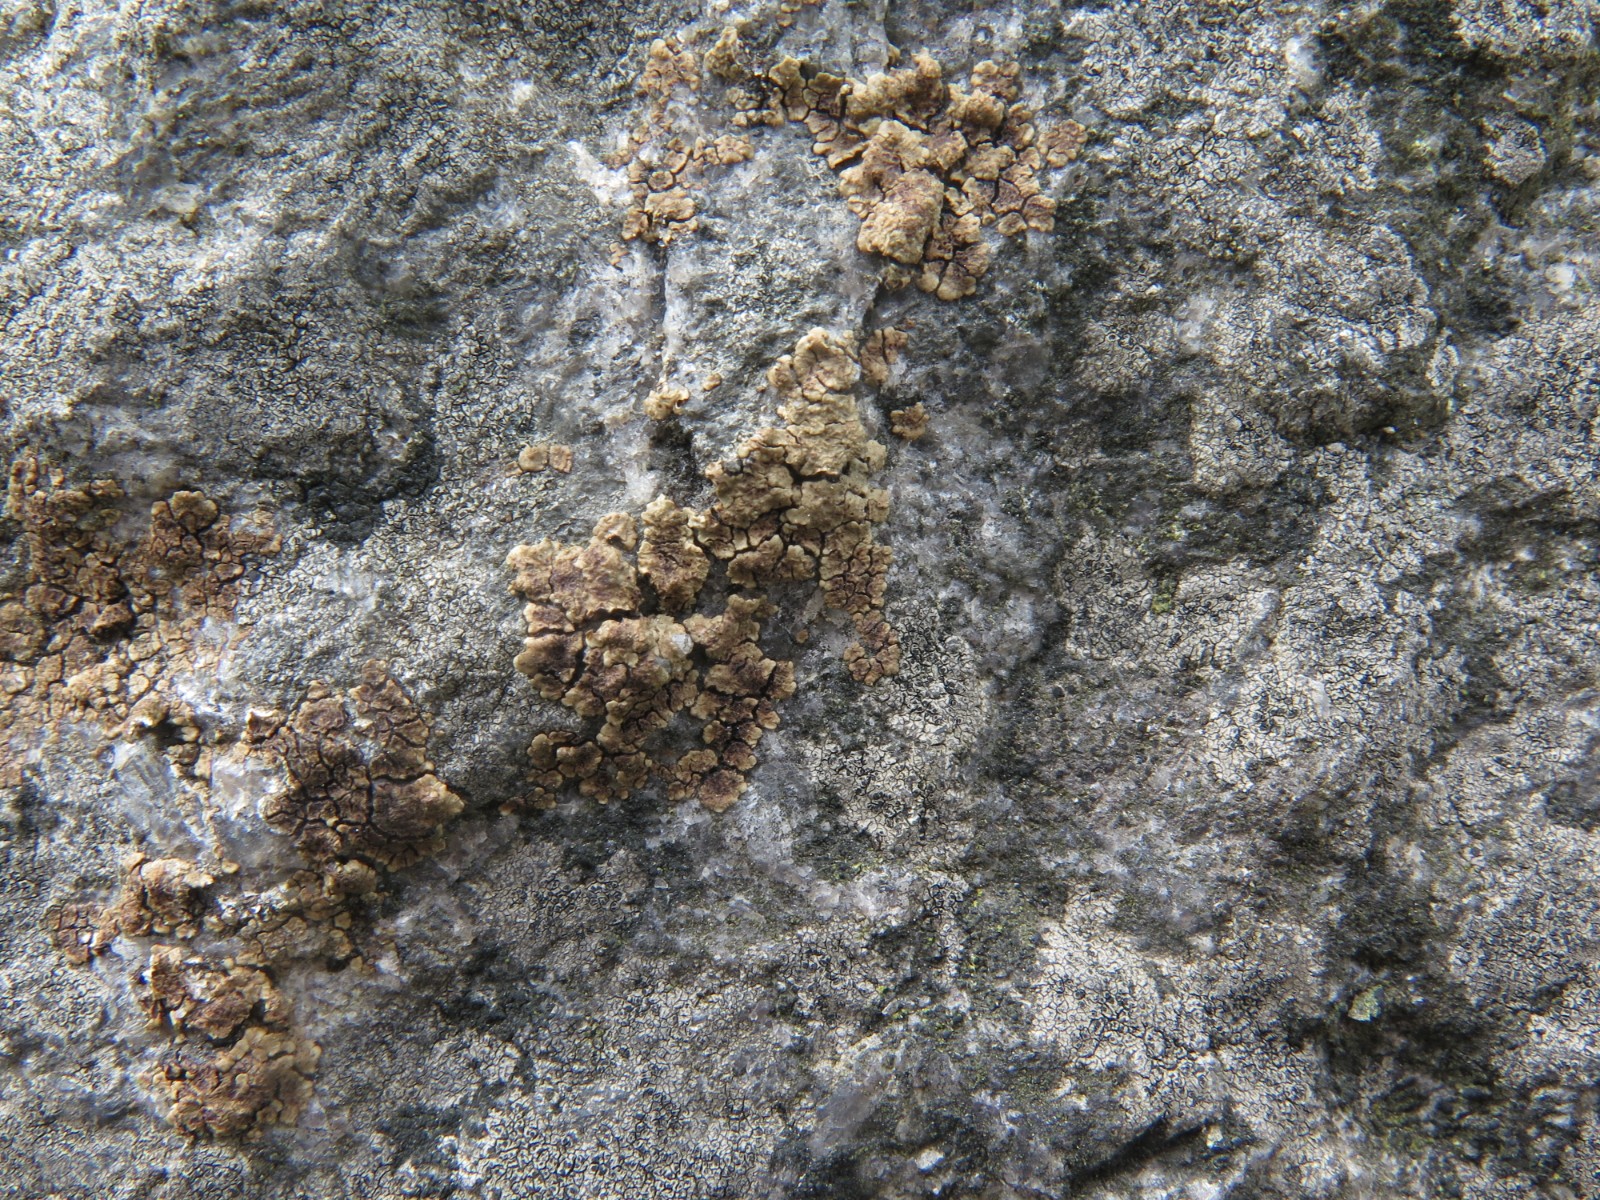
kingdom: Fungi
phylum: Ascomycota
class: Lecanoromycetes
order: Acarosporales
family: Acarosporaceae
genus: Acarospora
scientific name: Acarospora fuscata
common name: brun småsporelav
